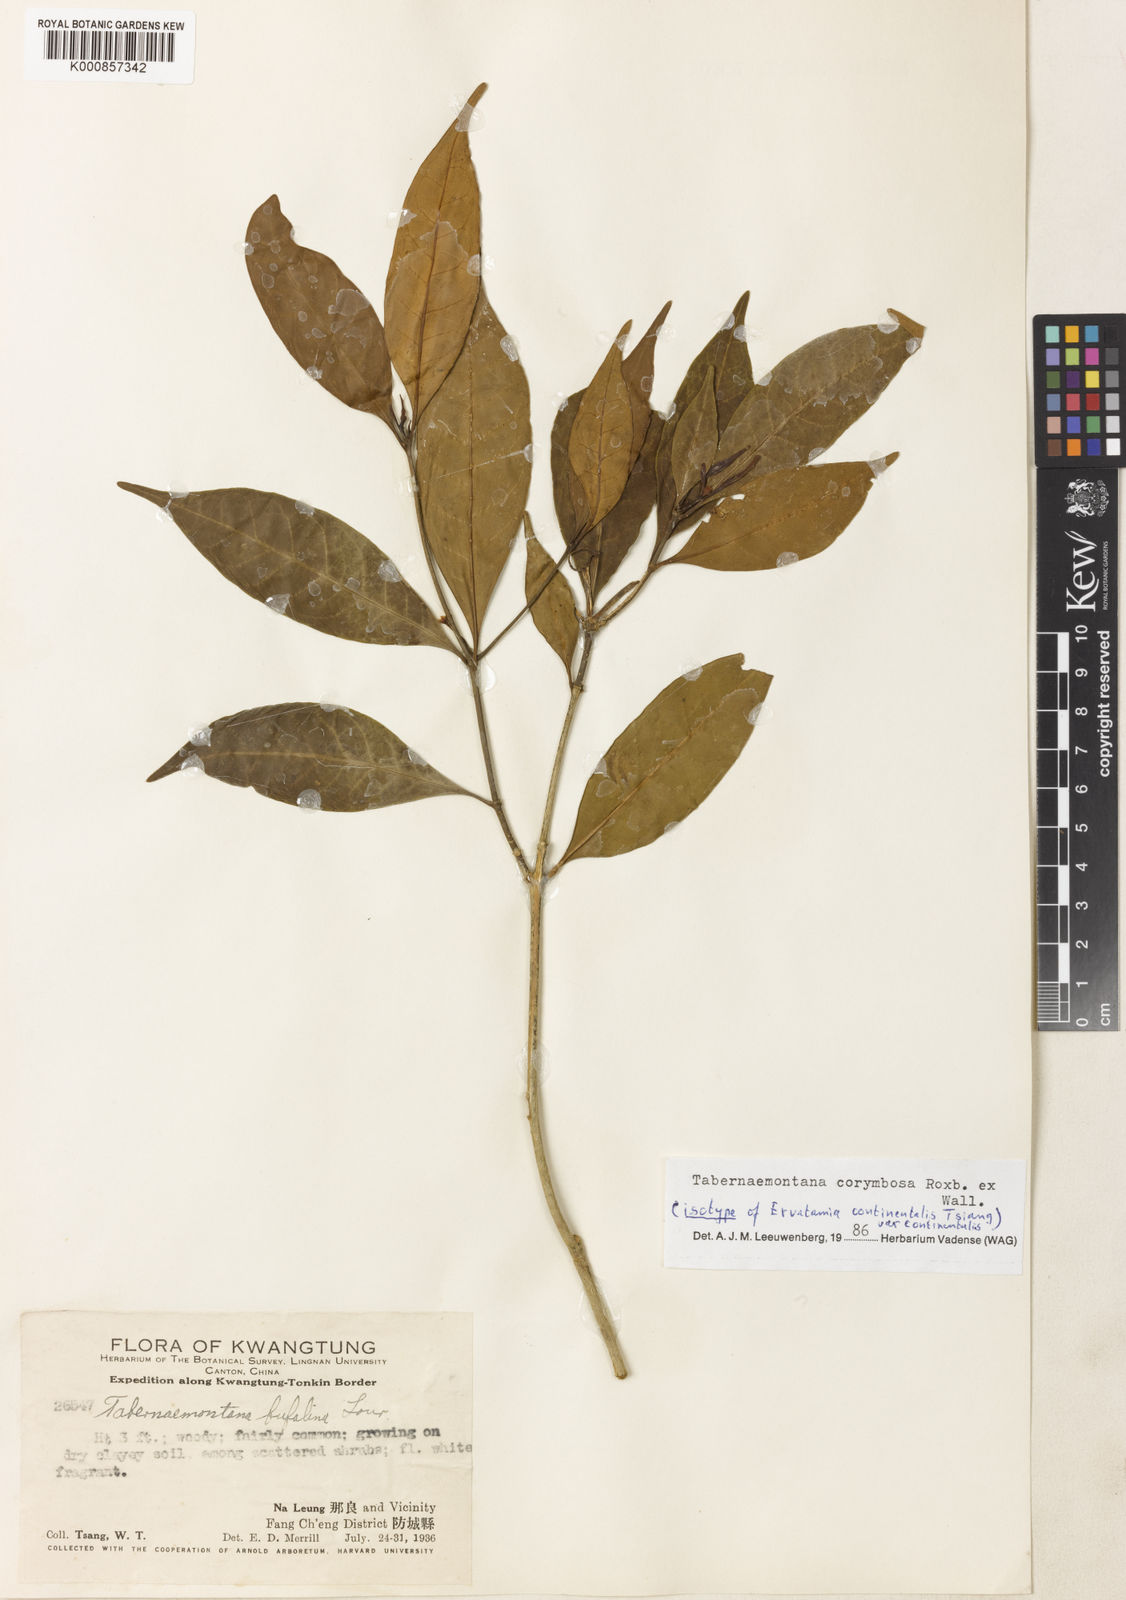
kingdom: Plantae
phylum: Tracheophyta
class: Magnoliopsida
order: Gentianales
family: Apocynaceae
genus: Tabernaemontana
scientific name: Tabernaemontana corymbosa
